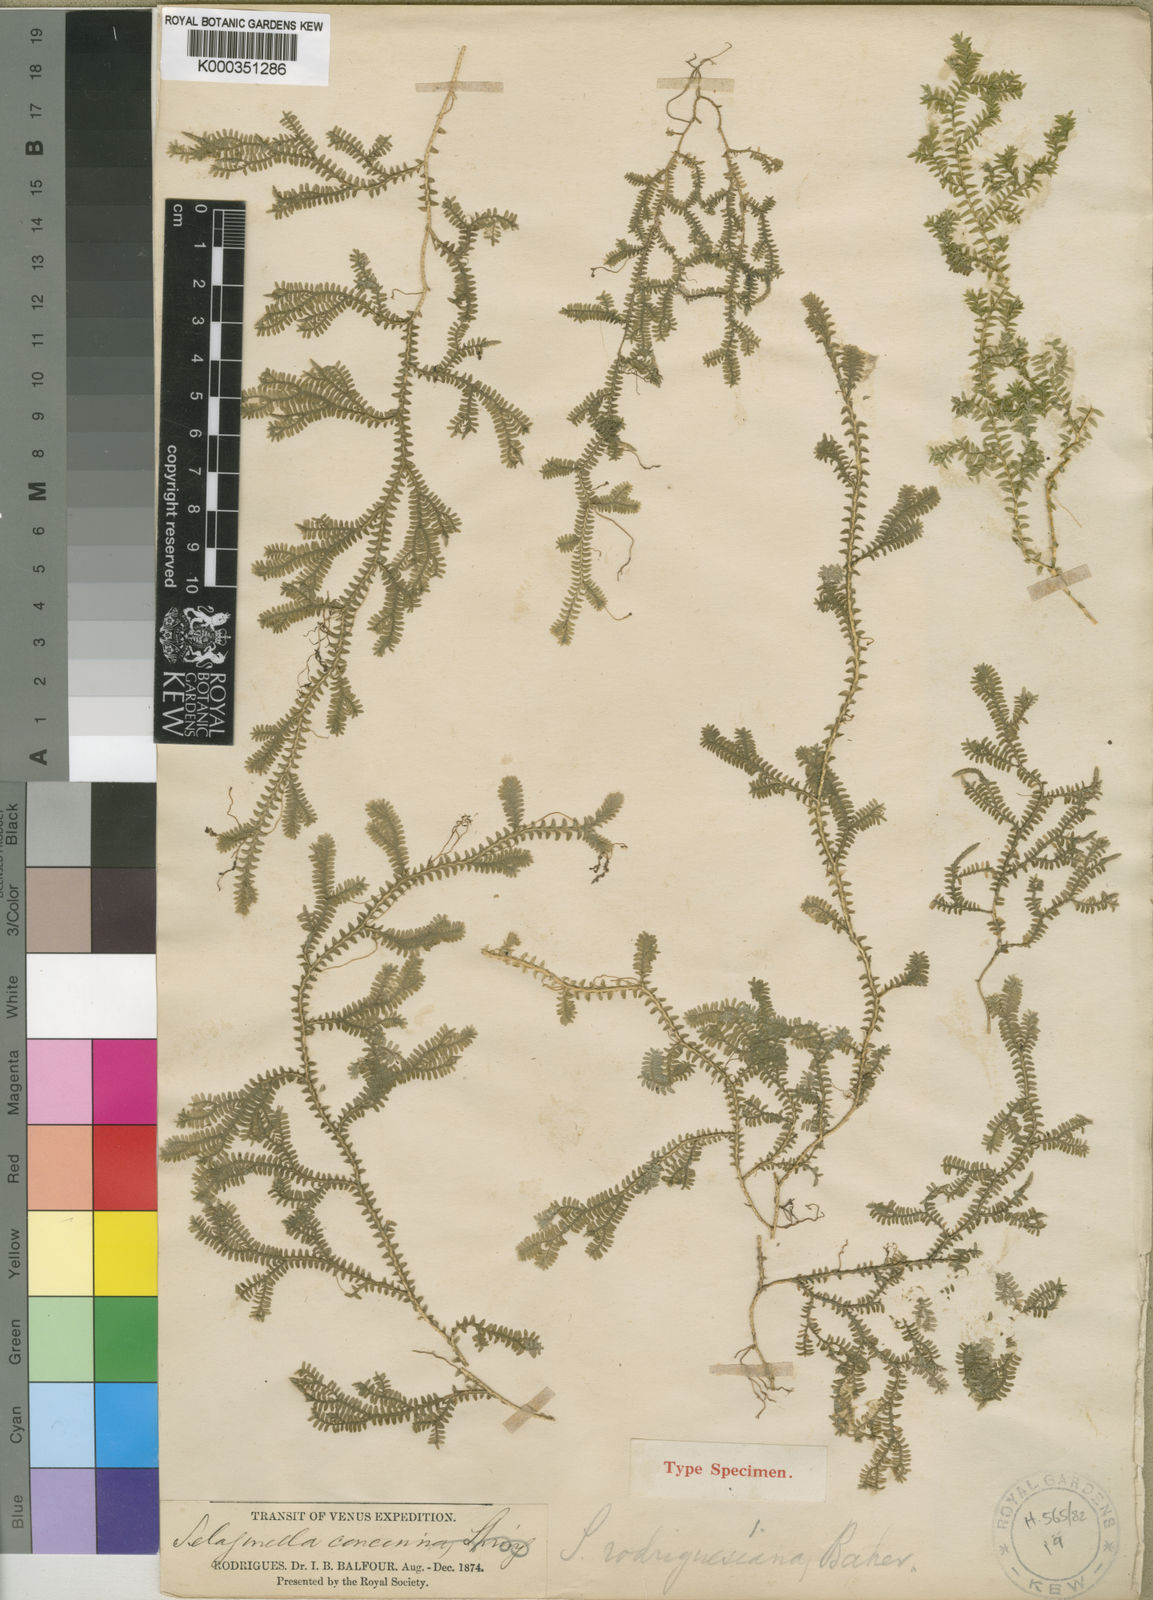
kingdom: Plantae
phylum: Tracheophyta
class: Lycopodiopsida
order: Selaginellales
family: Selaginellaceae
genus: Selaginella
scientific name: Selaginella rodriguesiana
